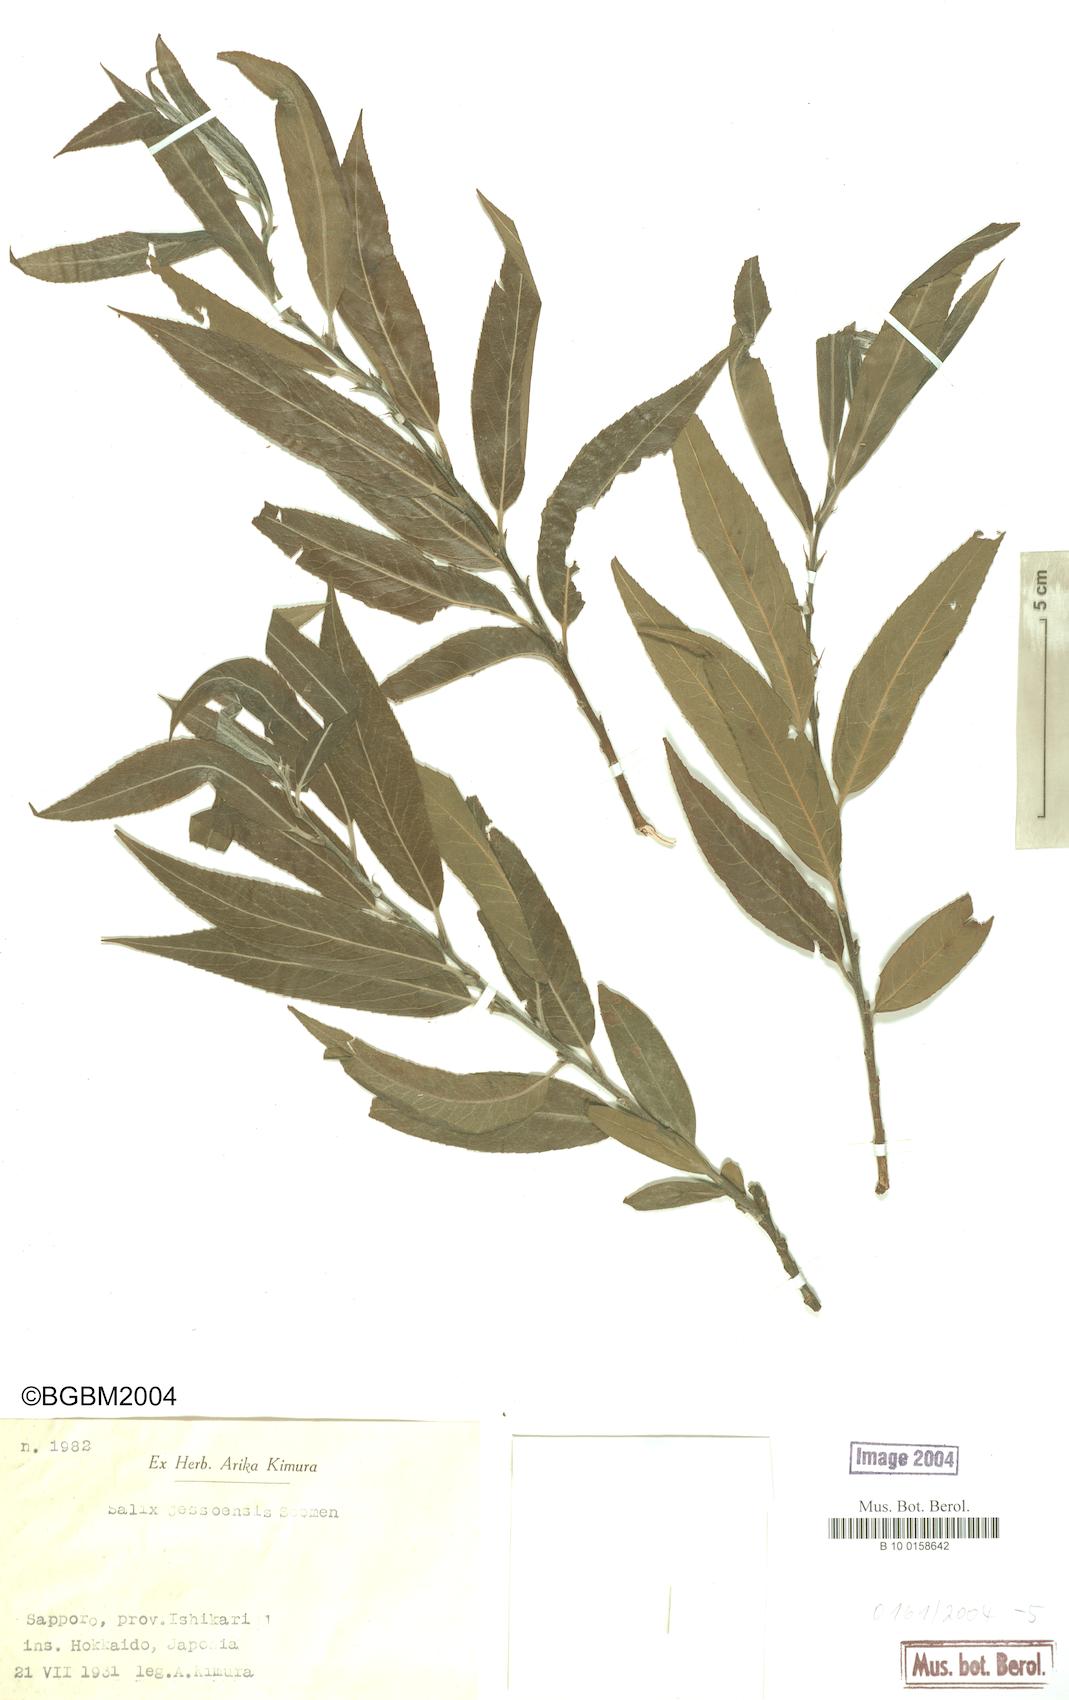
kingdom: Plantae
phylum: Tracheophyta
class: Magnoliopsida
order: Malpighiales
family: Salicaceae
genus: Salix
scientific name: Salix jessoensis
